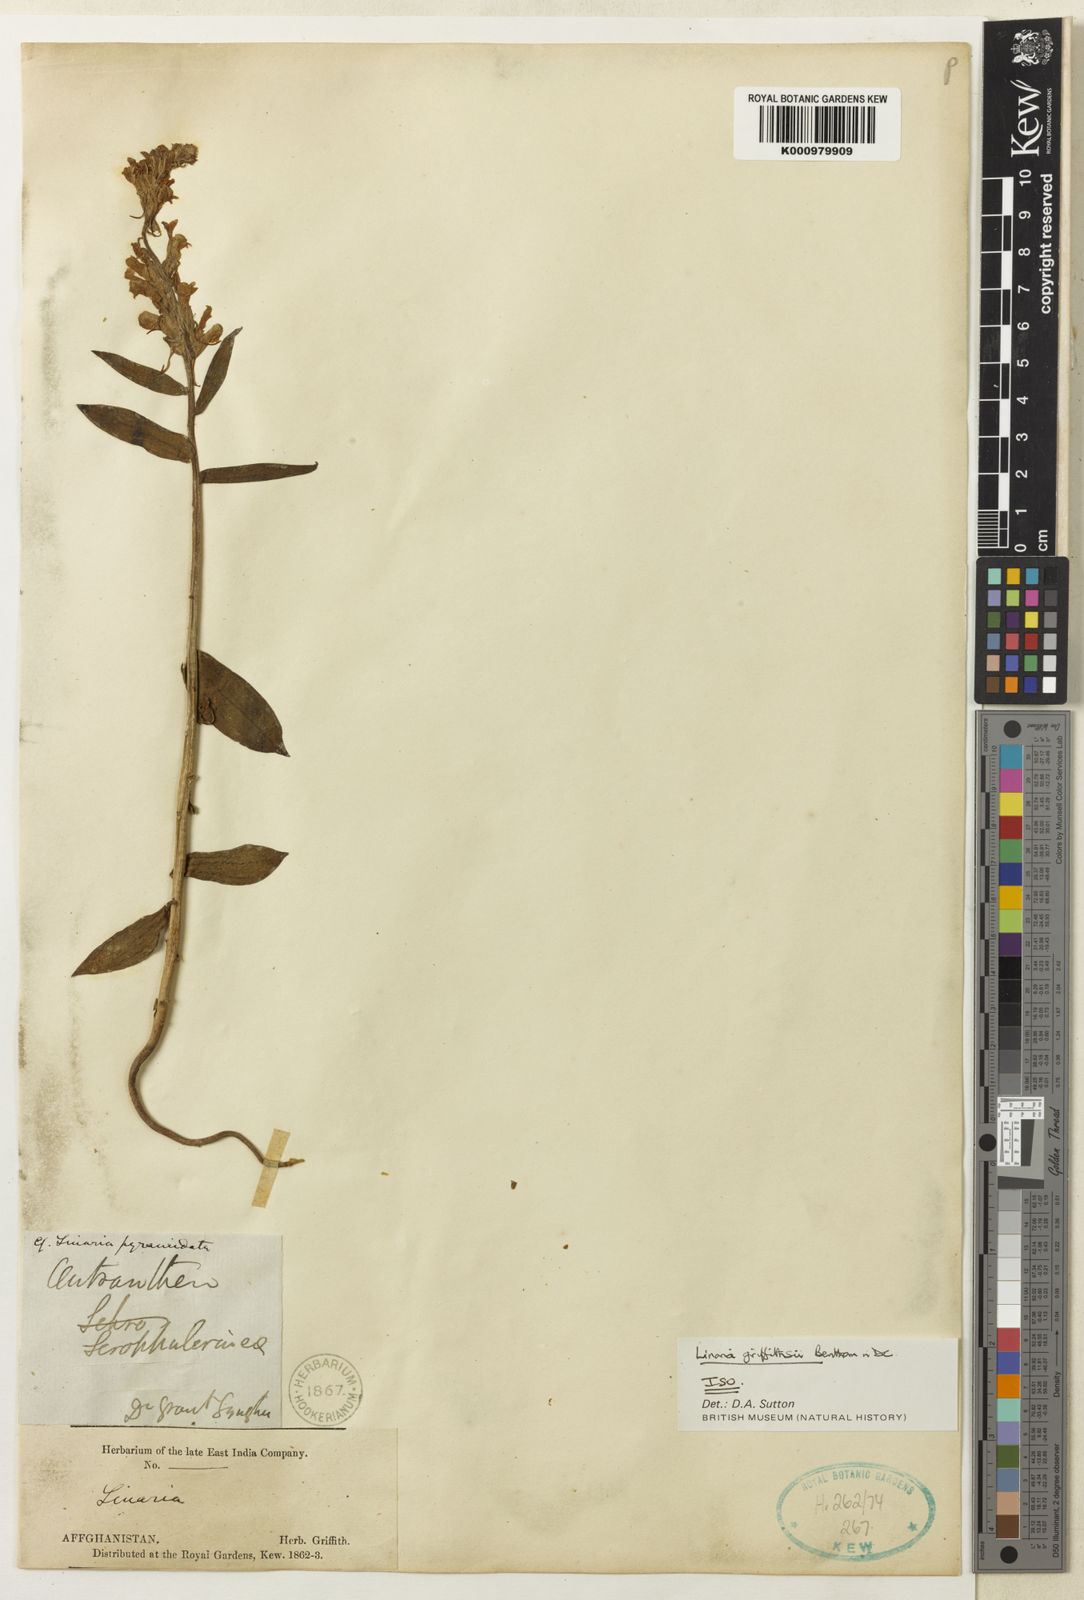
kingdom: Plantae
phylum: Tracheophyta
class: Magnoliopsida
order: Lamiales
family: Plantaginaceae
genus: Linaria
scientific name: Linaria griffithii
